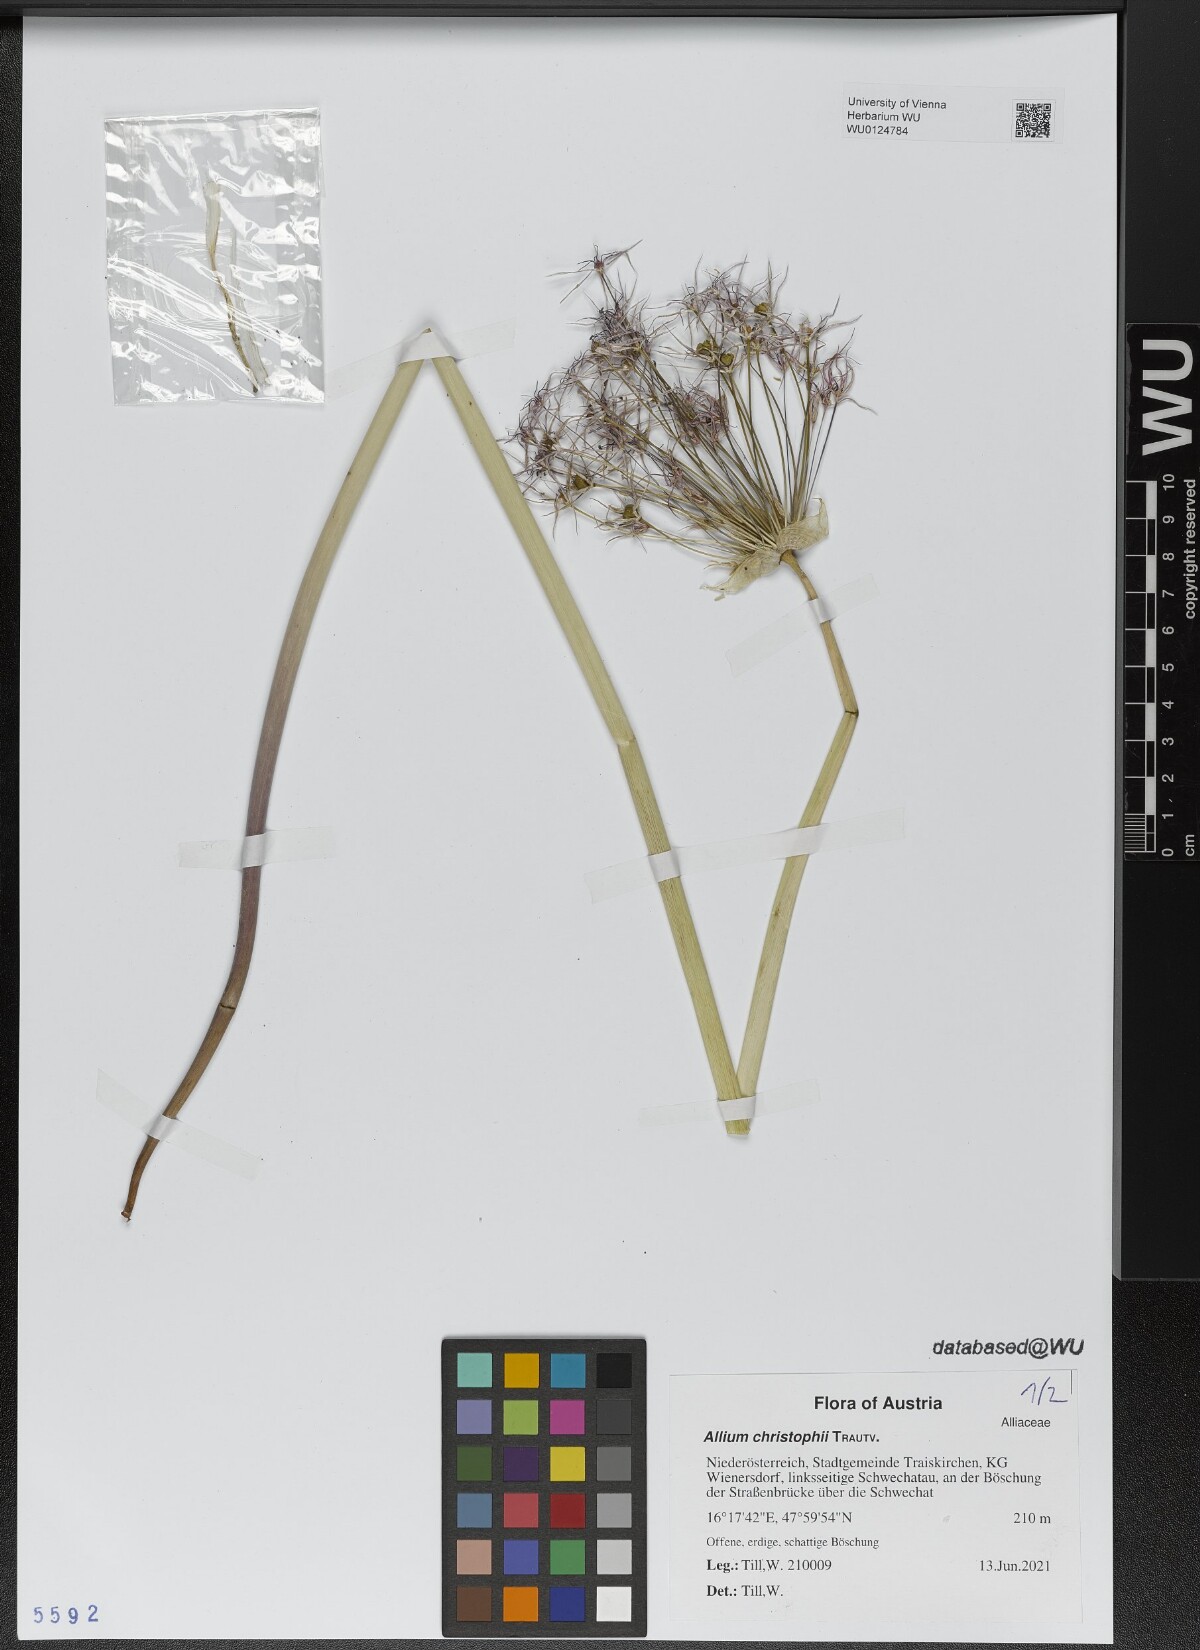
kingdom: Plantae
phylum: Tracheophyta
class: Liliopsida
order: Asparagales
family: Amaryllidaceae
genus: Allium
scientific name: Allium christophii
